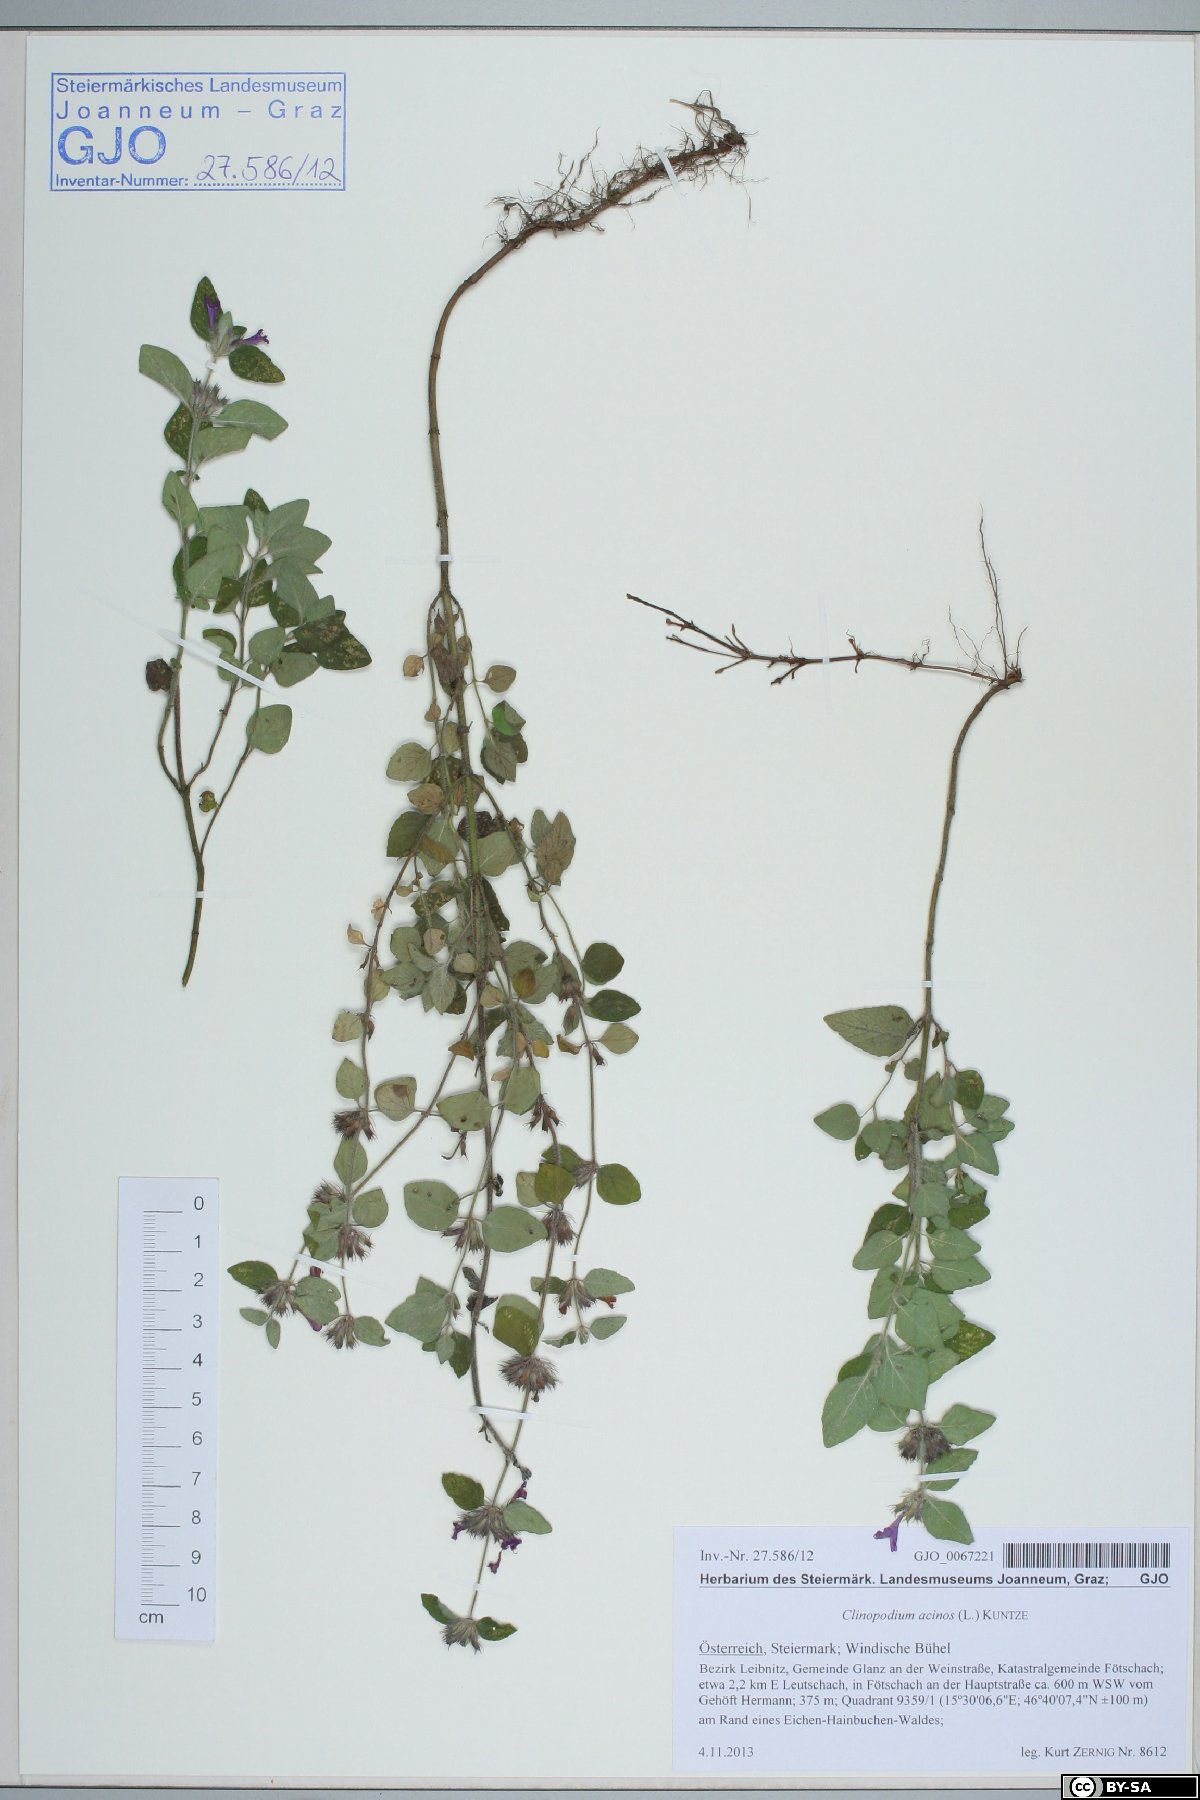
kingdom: Plantae
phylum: Tracheophyta
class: Magnoliopsida
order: Lamiales
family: Lamiaceae
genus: Clinopodium
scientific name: Clinopodium acinos
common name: Basil thyme
